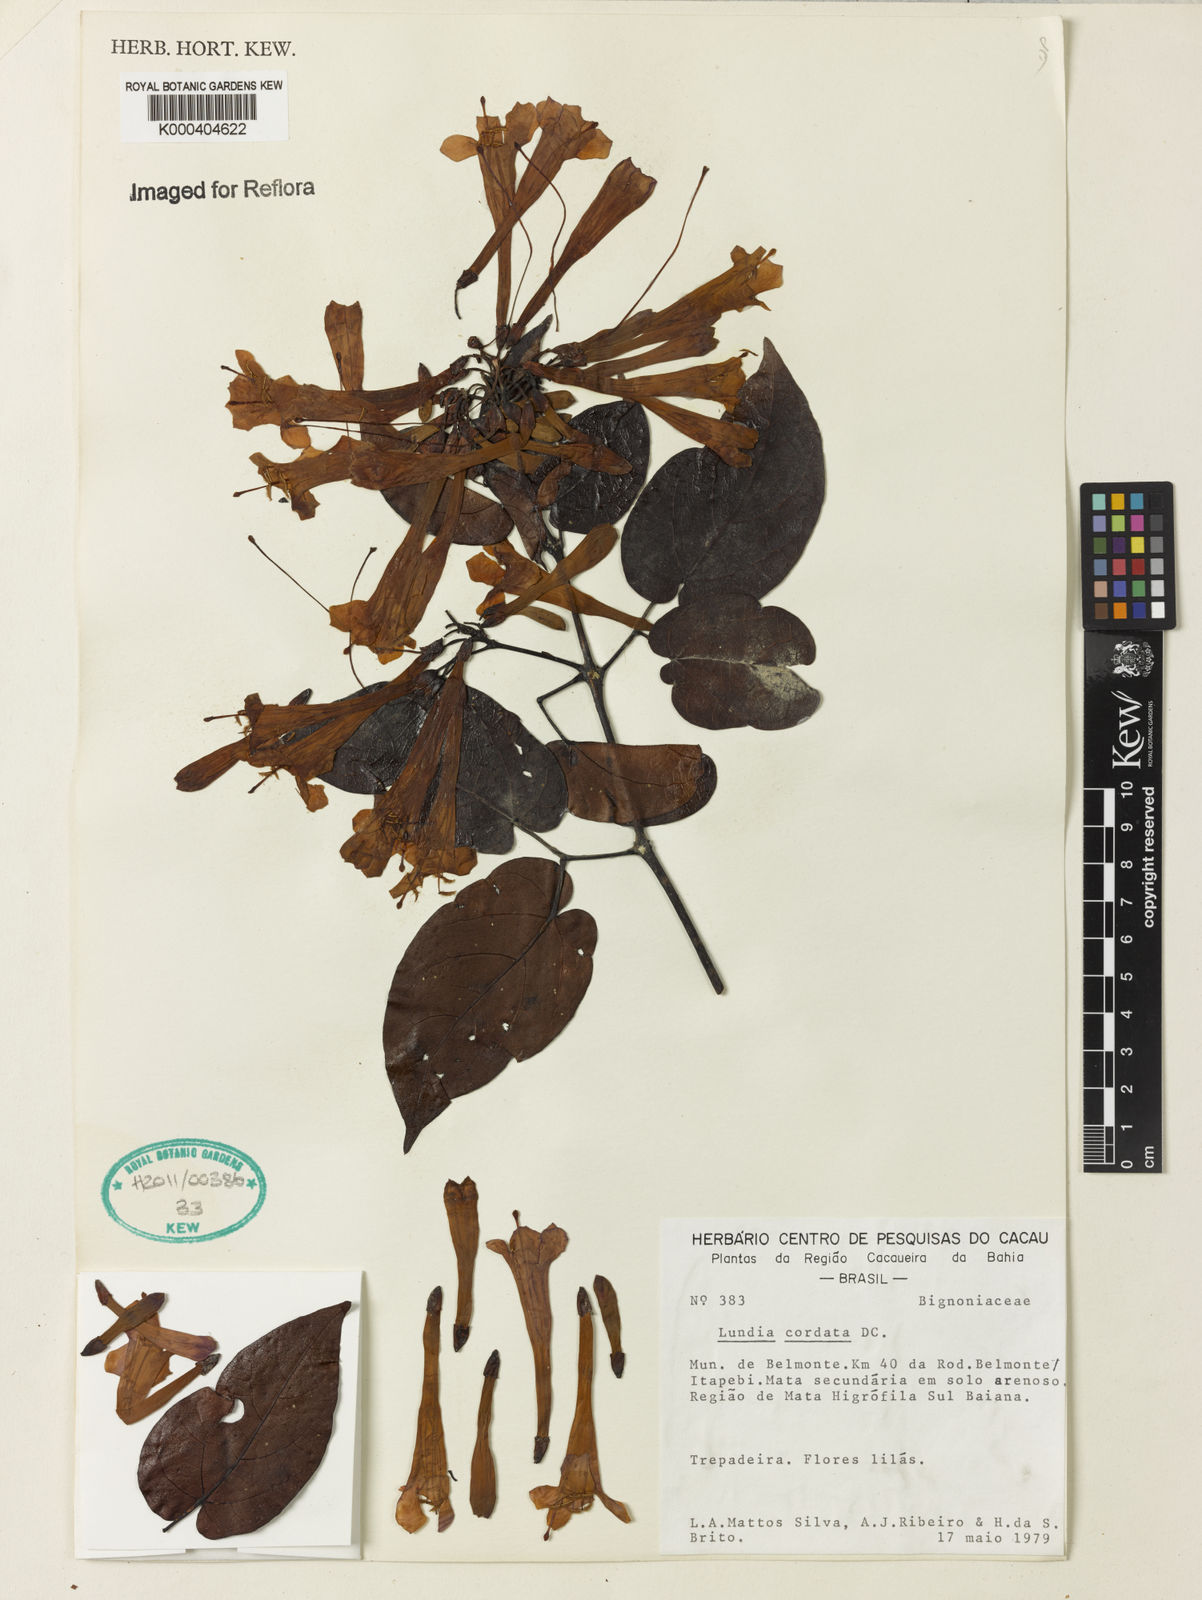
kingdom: Plantae
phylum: Tracheophyta
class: Magnoliopsida
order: Lamiales
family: Bignoniaceae
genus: Lundia
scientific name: Lundia corymbifera
